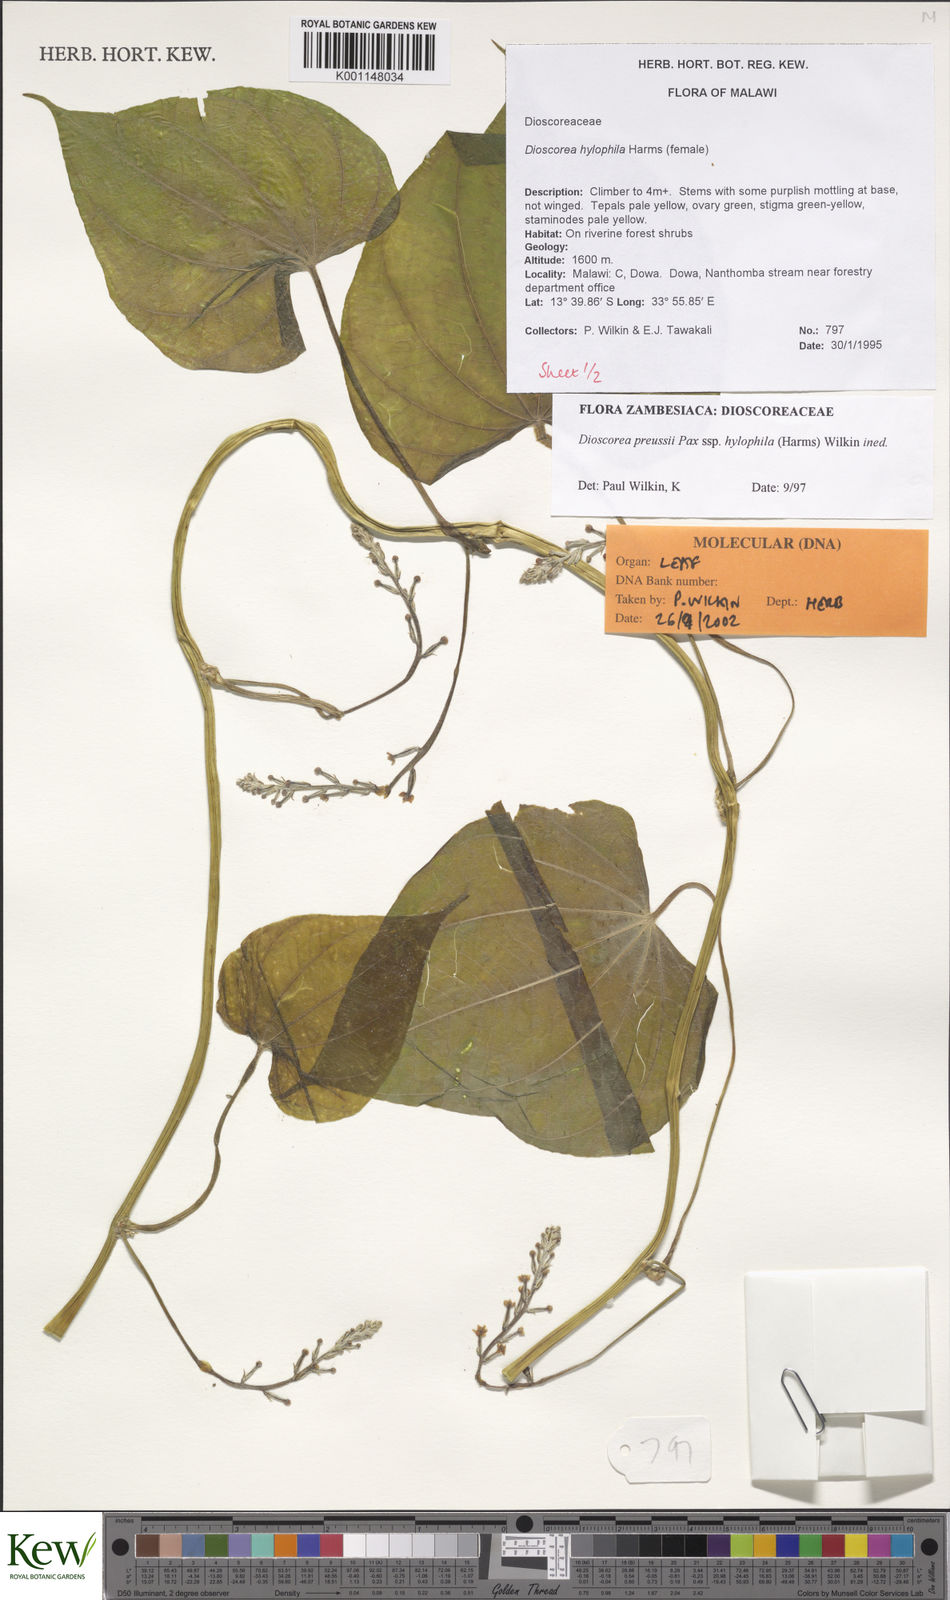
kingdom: Plantae
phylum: Tracheophyta
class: Liliopsida
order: Dioscoreales
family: Dioscoreaceae
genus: Dioscorea
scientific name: Dioscorea
